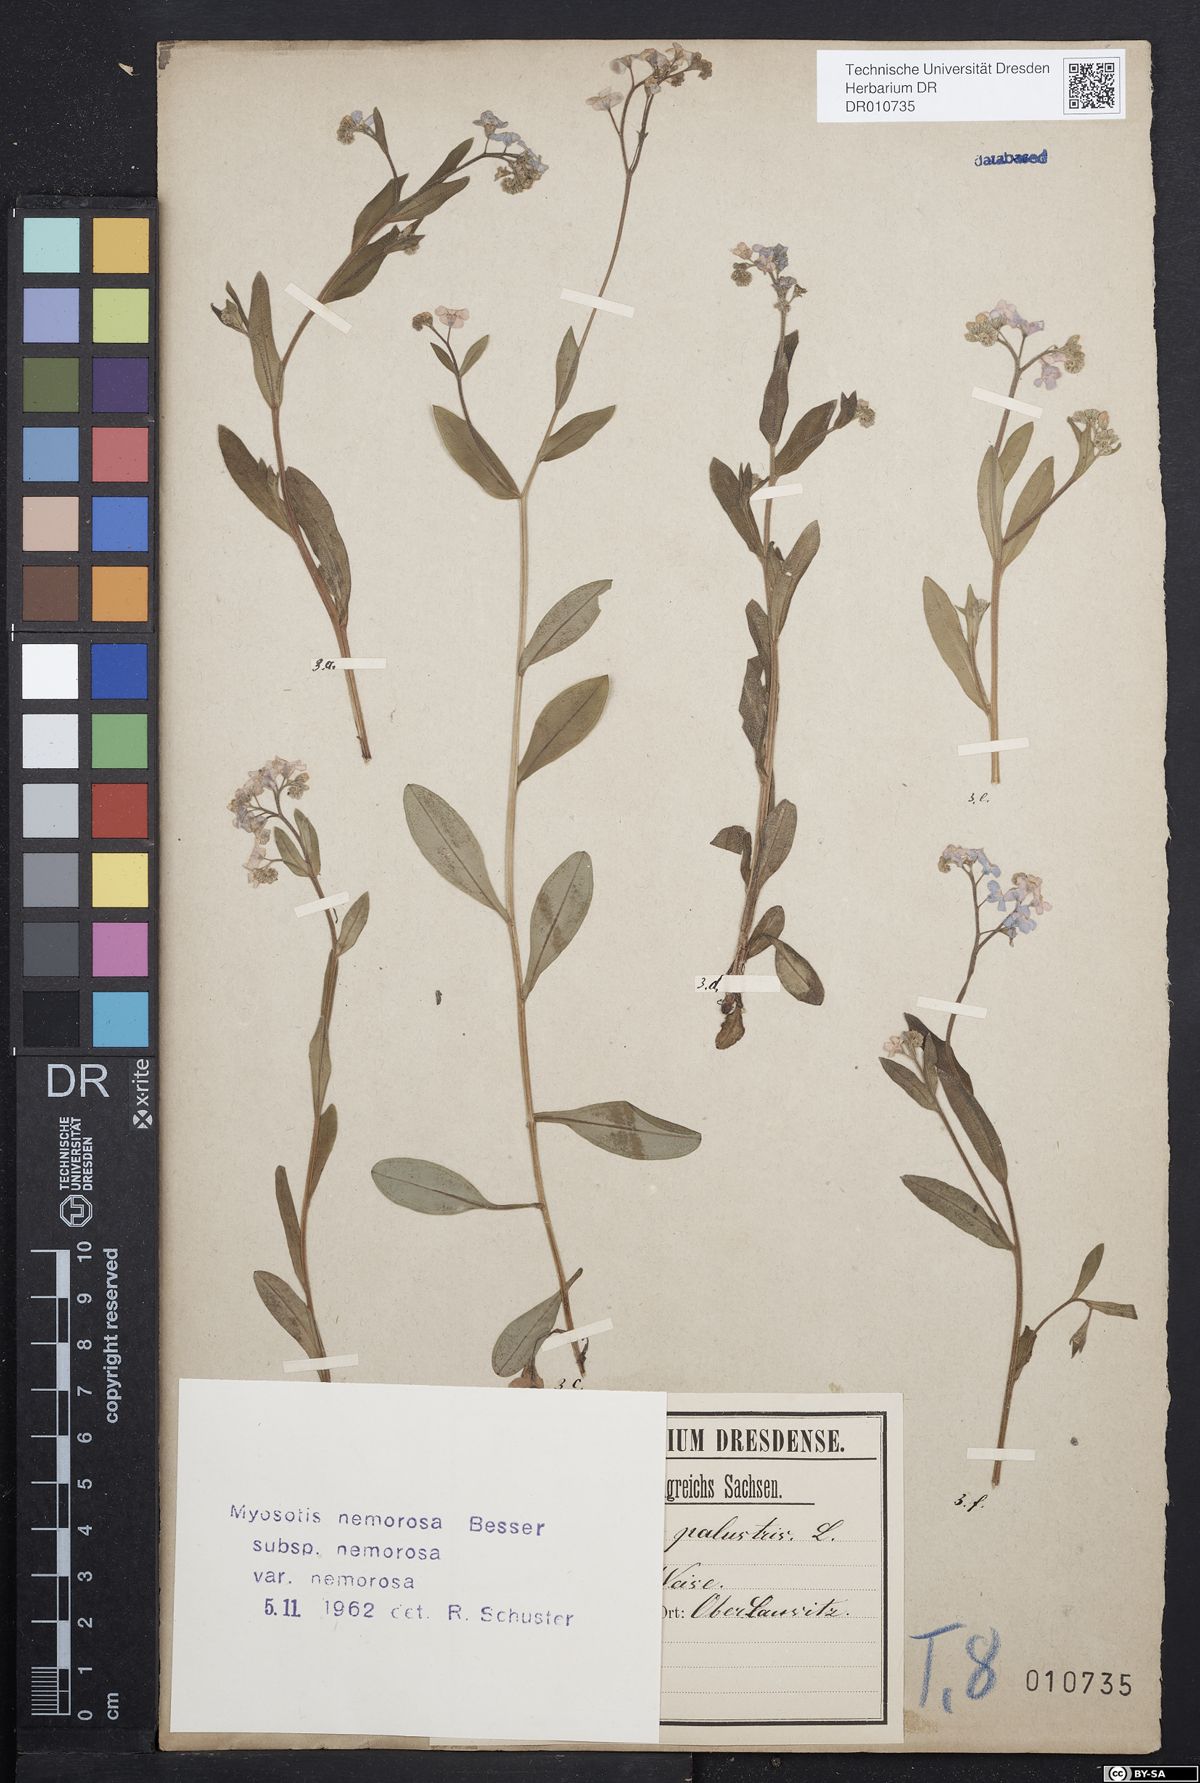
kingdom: Plantae
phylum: Tracheophyta
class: Magnoliopsida
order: Boraginales
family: Boraginaceae
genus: Myosotis
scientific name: Myosotis nemorosa
